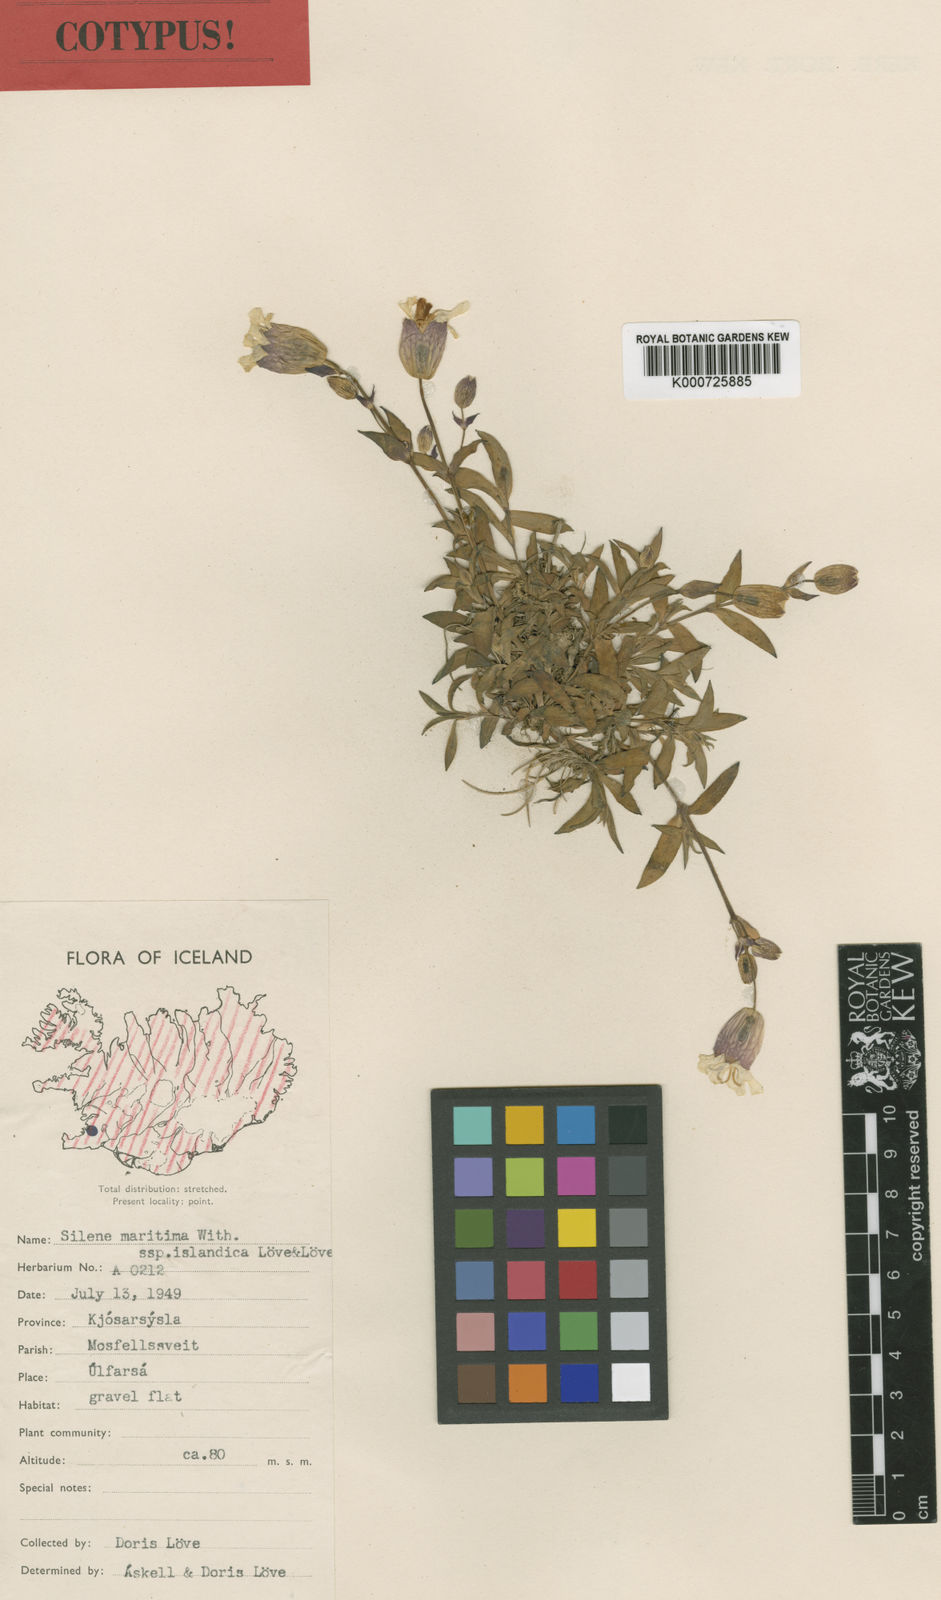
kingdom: Plantae
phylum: Tracheophyta
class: Magnoliopsida
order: Caryophyllales
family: Caryophyllaceae
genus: Silene
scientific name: Silene vulgaris
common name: Bladder campion
